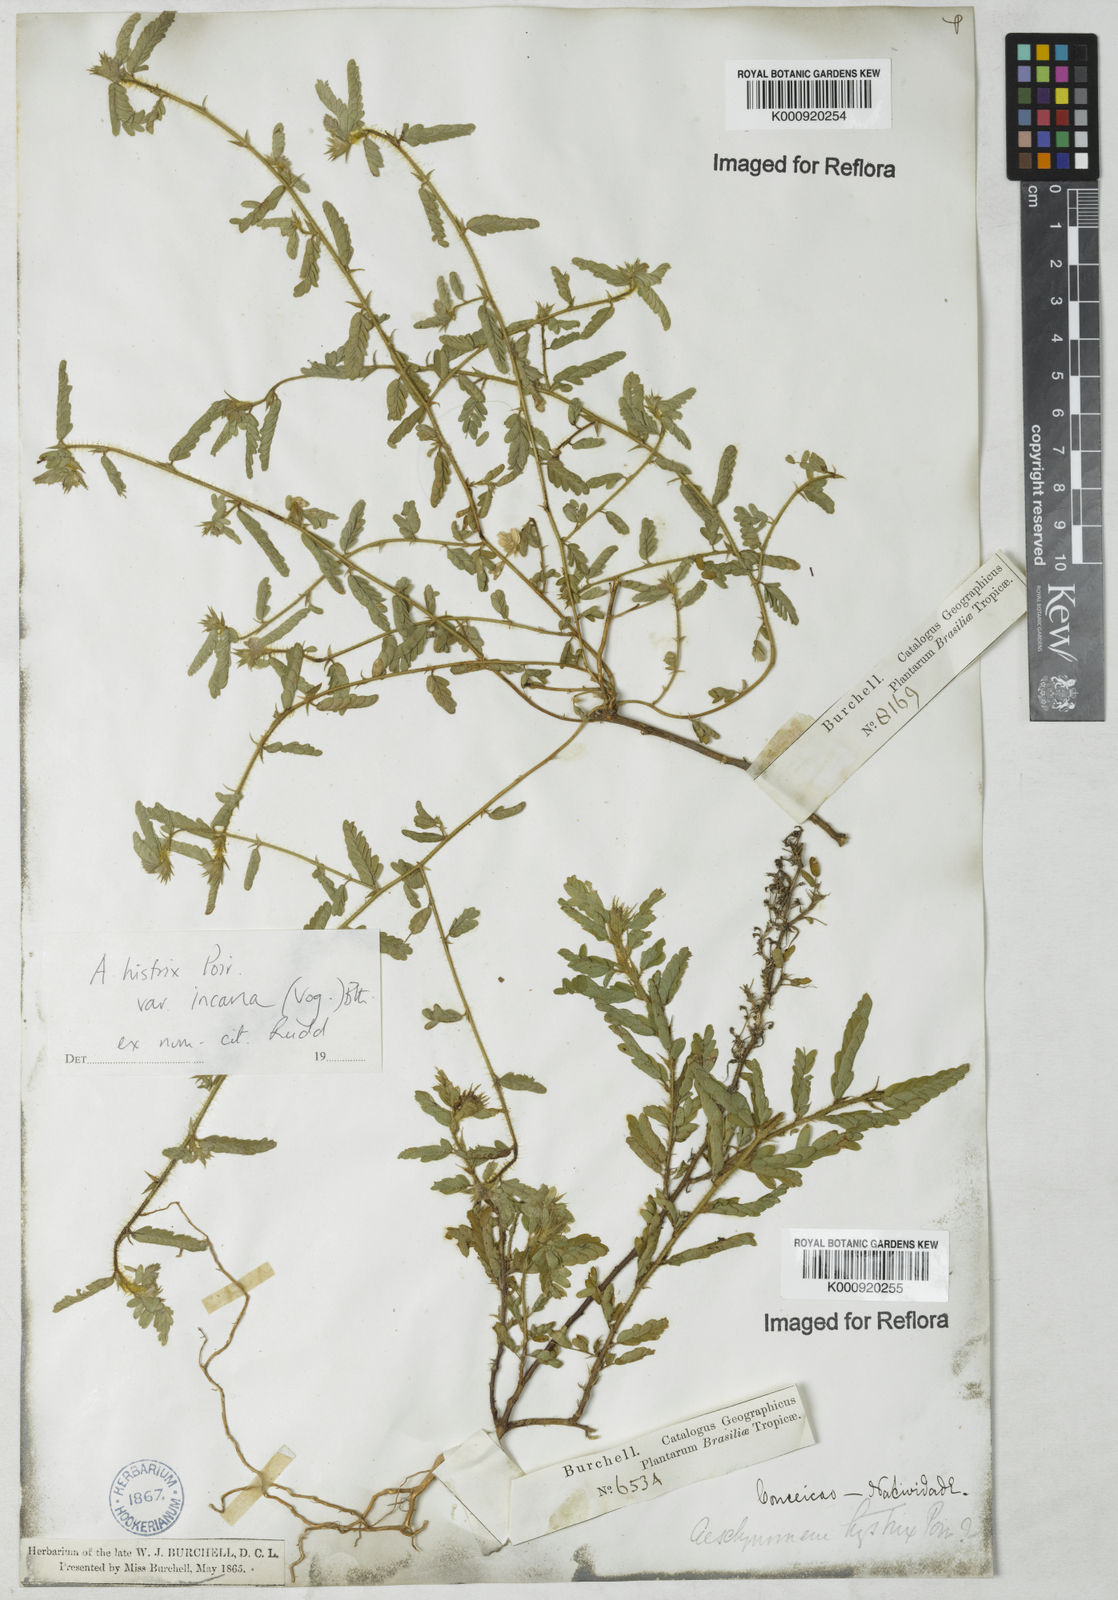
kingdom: Plantae
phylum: Tracheophyta
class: Magnoliopsida
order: Fabales
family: Fabaceae
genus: Ctenodon
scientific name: Ctenodon histrix
